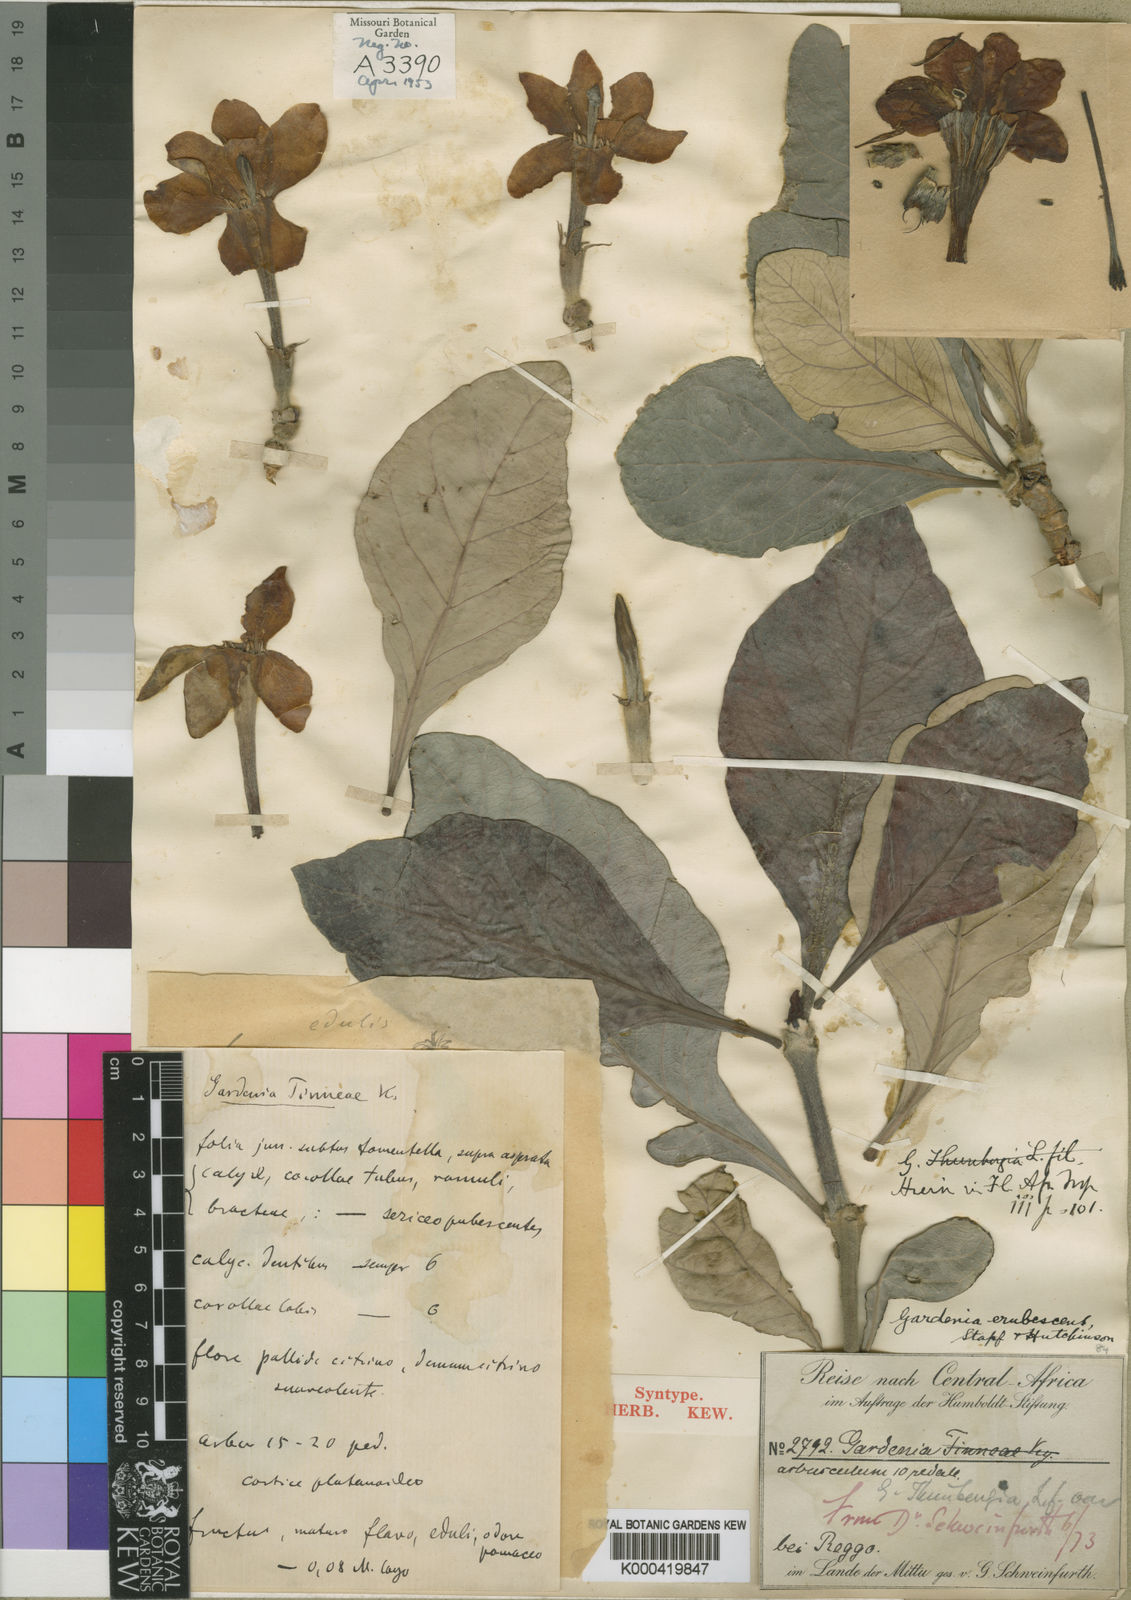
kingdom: Plantae
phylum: Tracheophyta
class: Magnoliopsida
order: Gentianales
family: Rubiaceae
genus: Gardenia
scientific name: Gardenia erubescens
